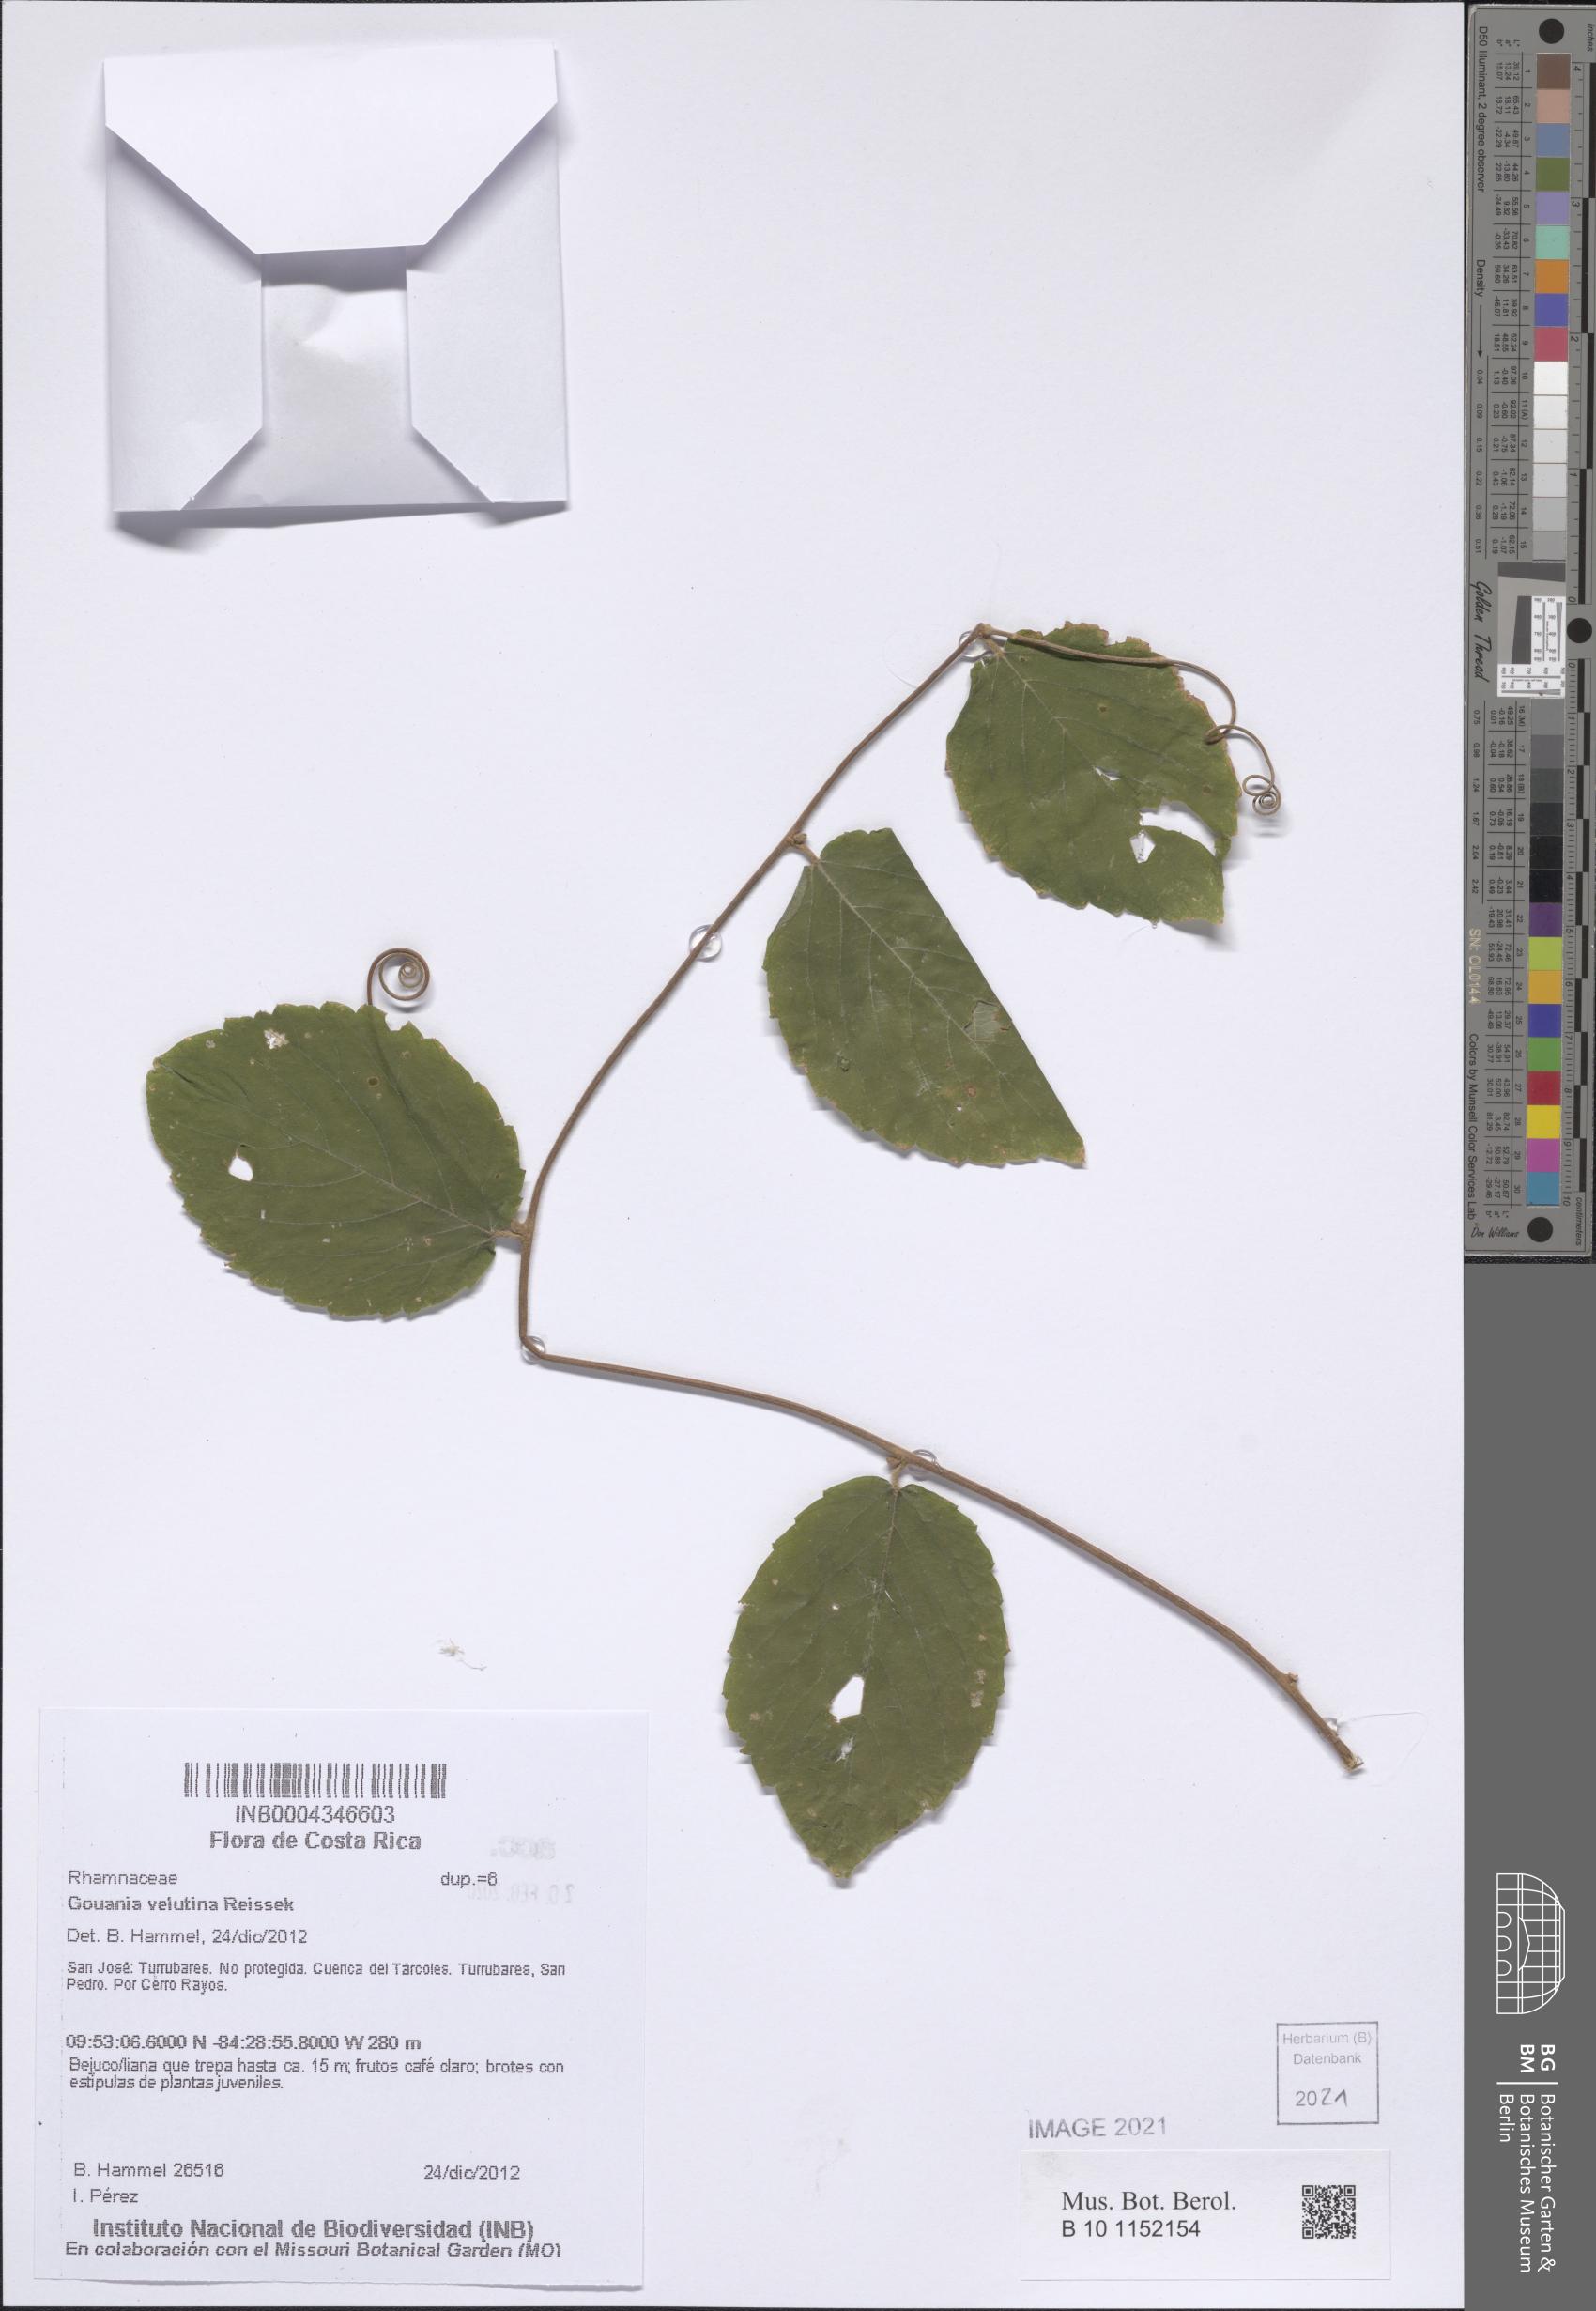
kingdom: Plantae
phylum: Tracheophyta
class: Magnoliopsida
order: Rosales
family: Rhamnaceae
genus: Gouania
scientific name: Gouania velutina
